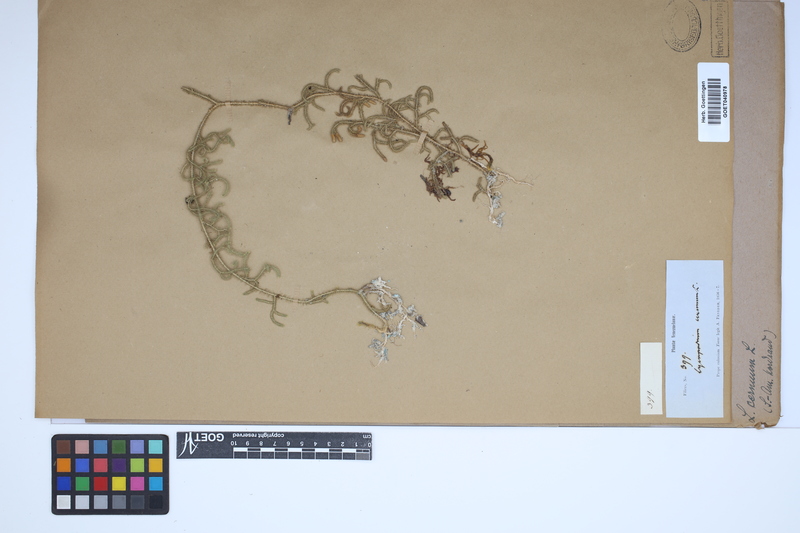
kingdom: Plantae
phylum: Tracheophyta
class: Lycopodiopsida
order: Lycopodiales
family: Lycopodiaceae
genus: Palhinhaea
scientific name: Palhinhaea cernua
